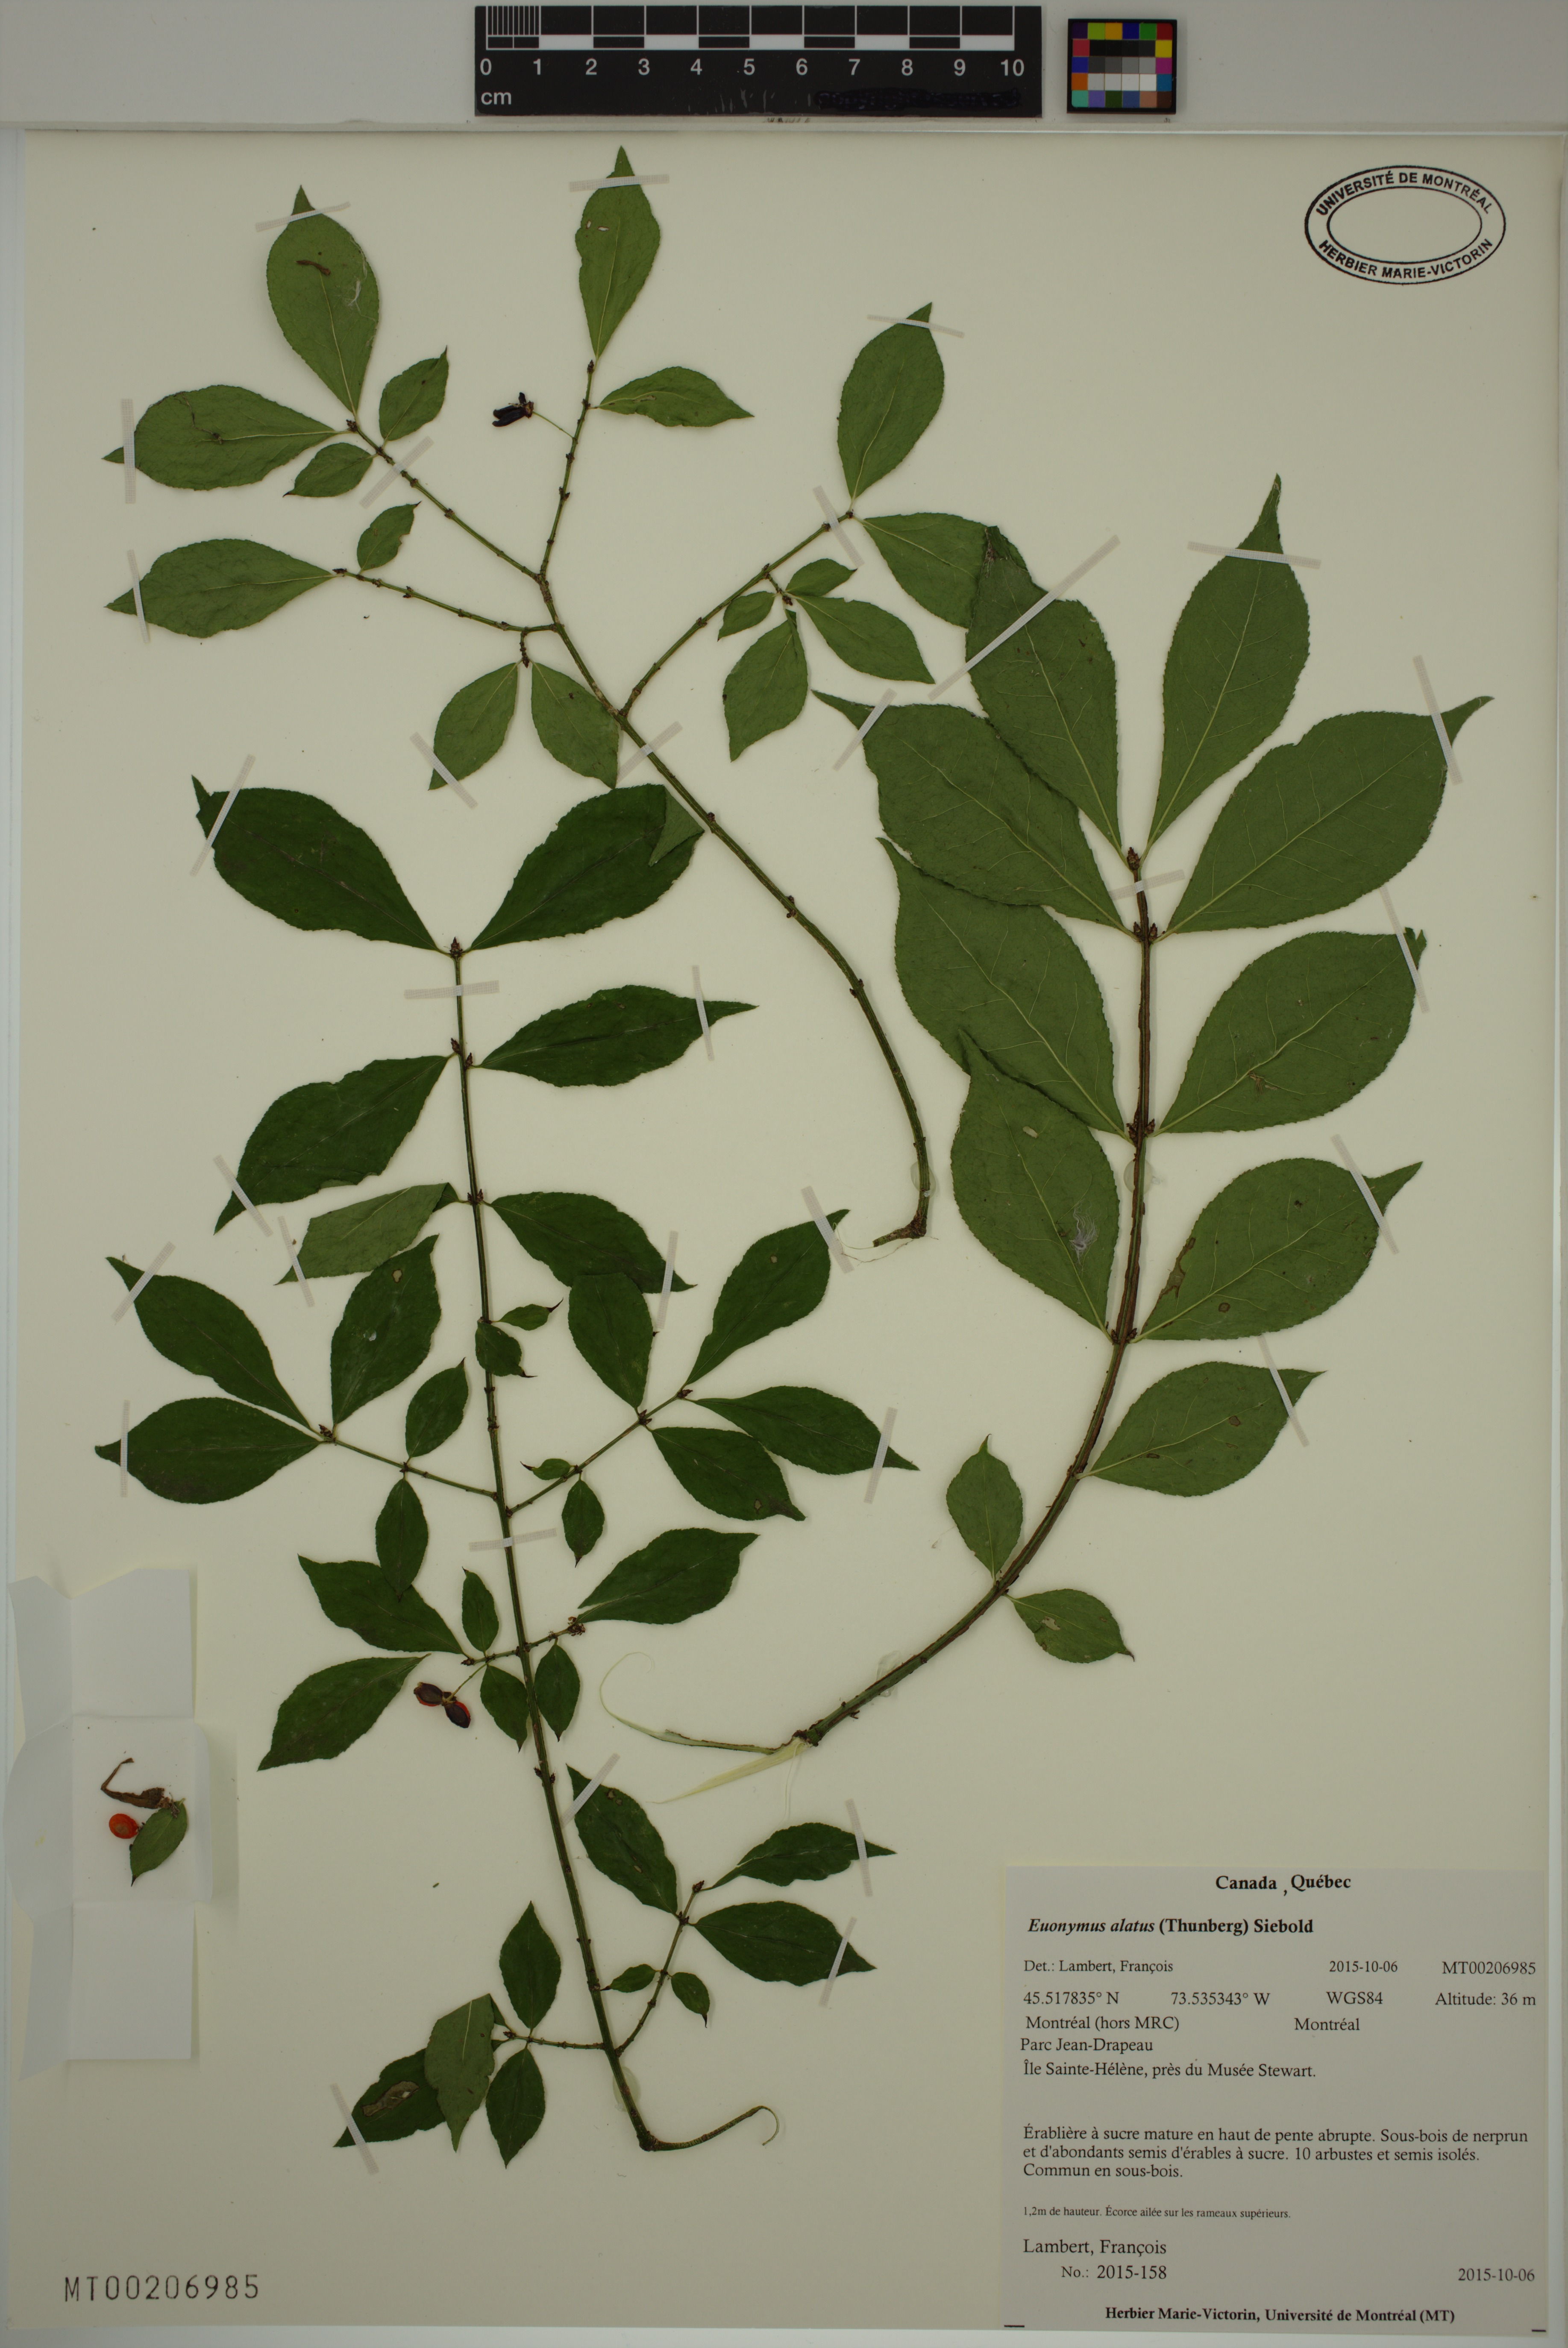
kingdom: Plantae
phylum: Tracheophyta
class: Magnoliopsida
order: Celastrales
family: Celastraceae
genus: Euonymus
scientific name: Euonymus alatus
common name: Winged euonymus
